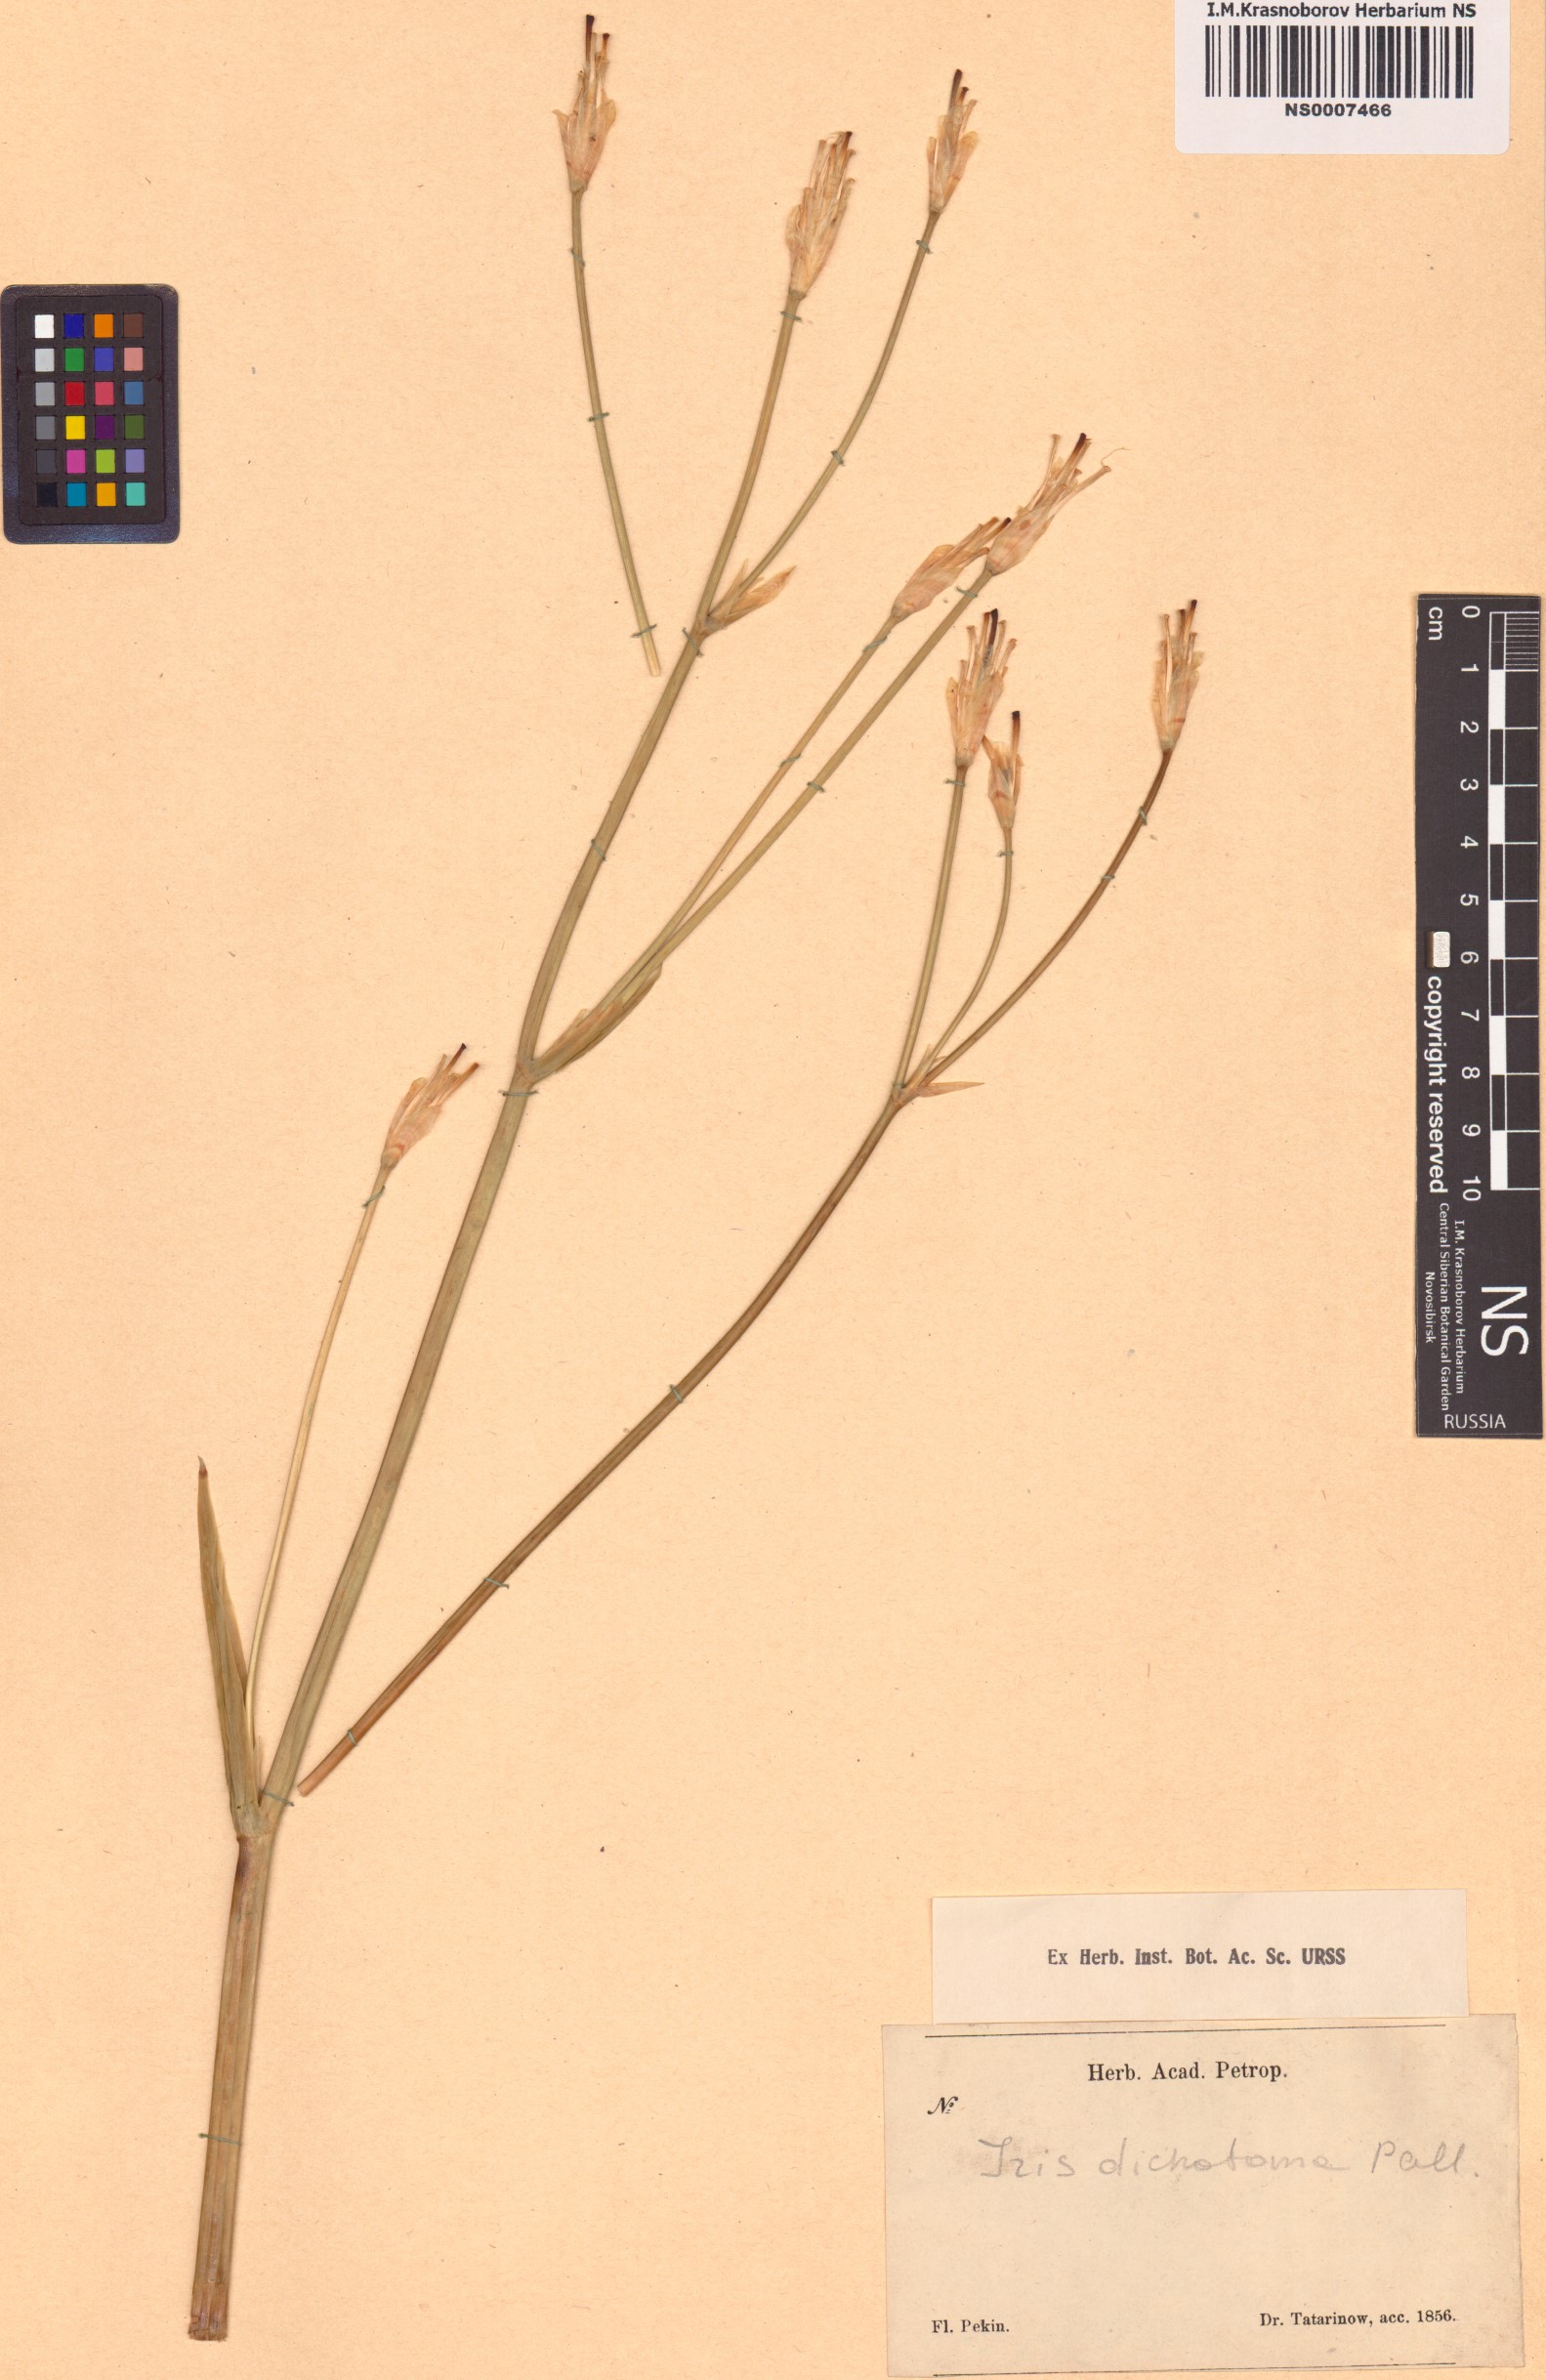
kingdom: Plantae
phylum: Tracheophyta
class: Liliopsida
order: Asparagales
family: Iridaceae
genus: Iris
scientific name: Iris dichotoma
